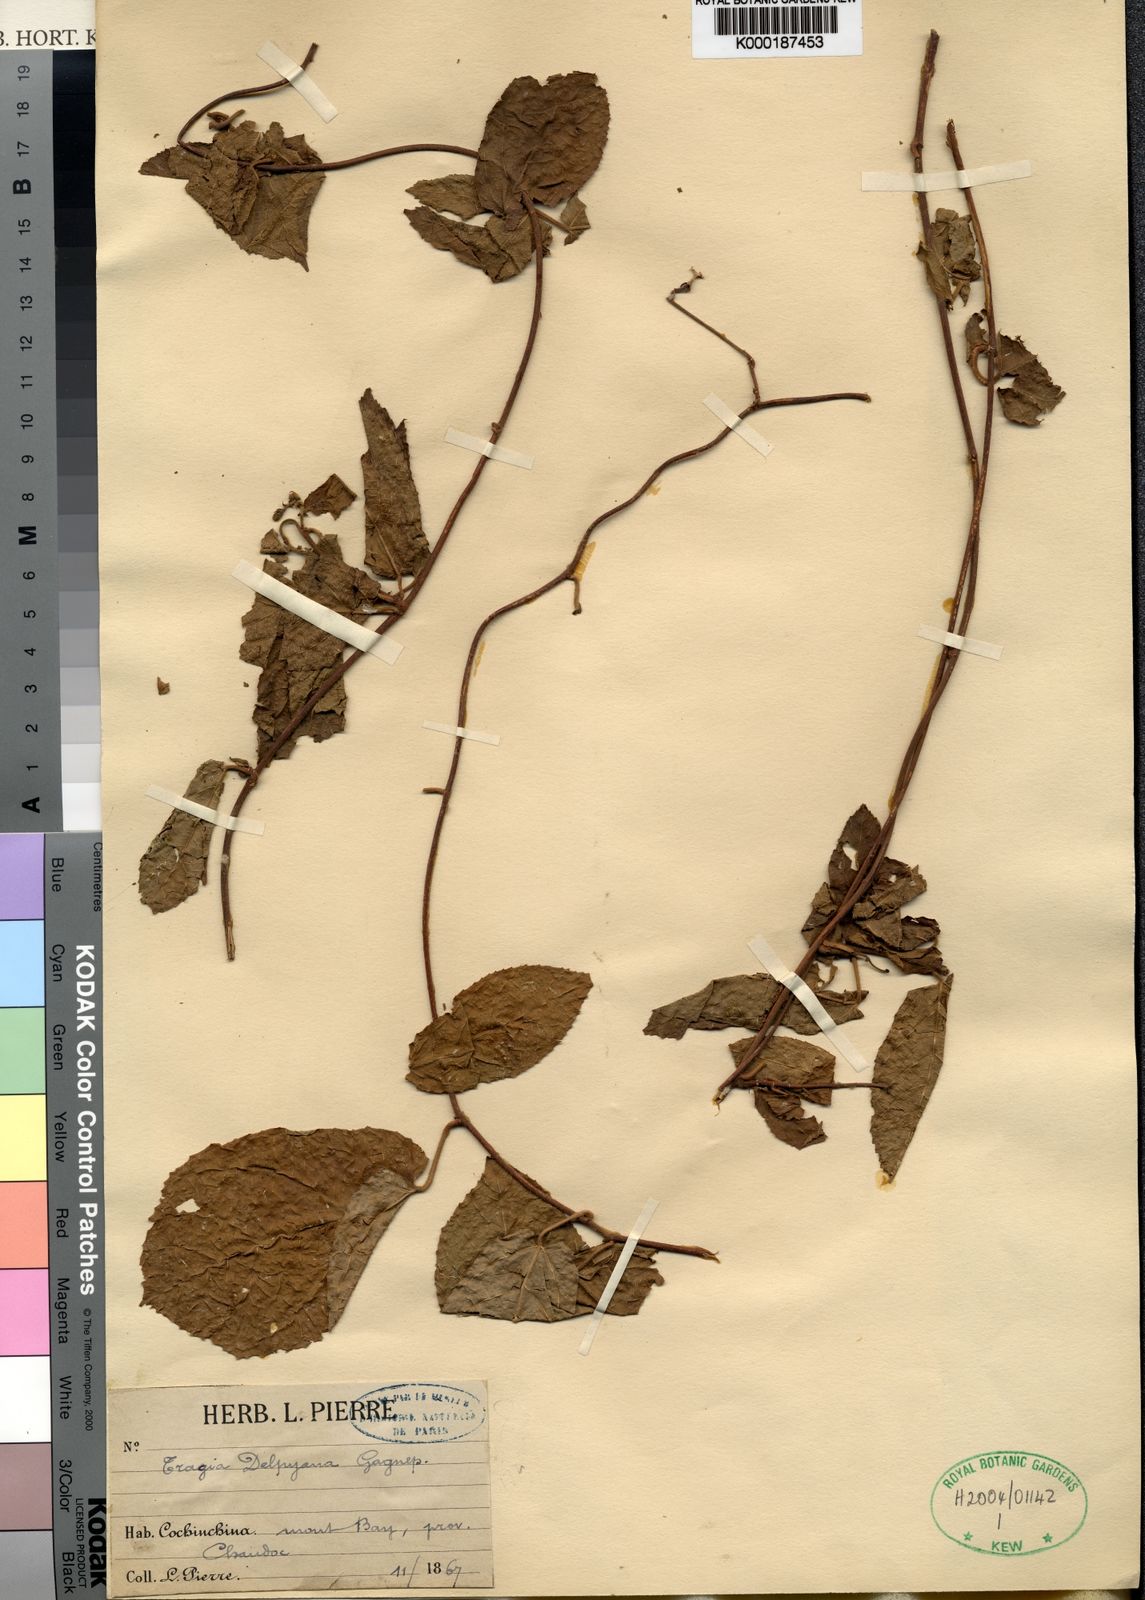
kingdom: Plantae
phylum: Tracheophyta
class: Magnoliopsida
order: Malpighiales
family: Euphorbiaceae
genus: Pachystylidium
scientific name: Pachystylidium hirsutum
